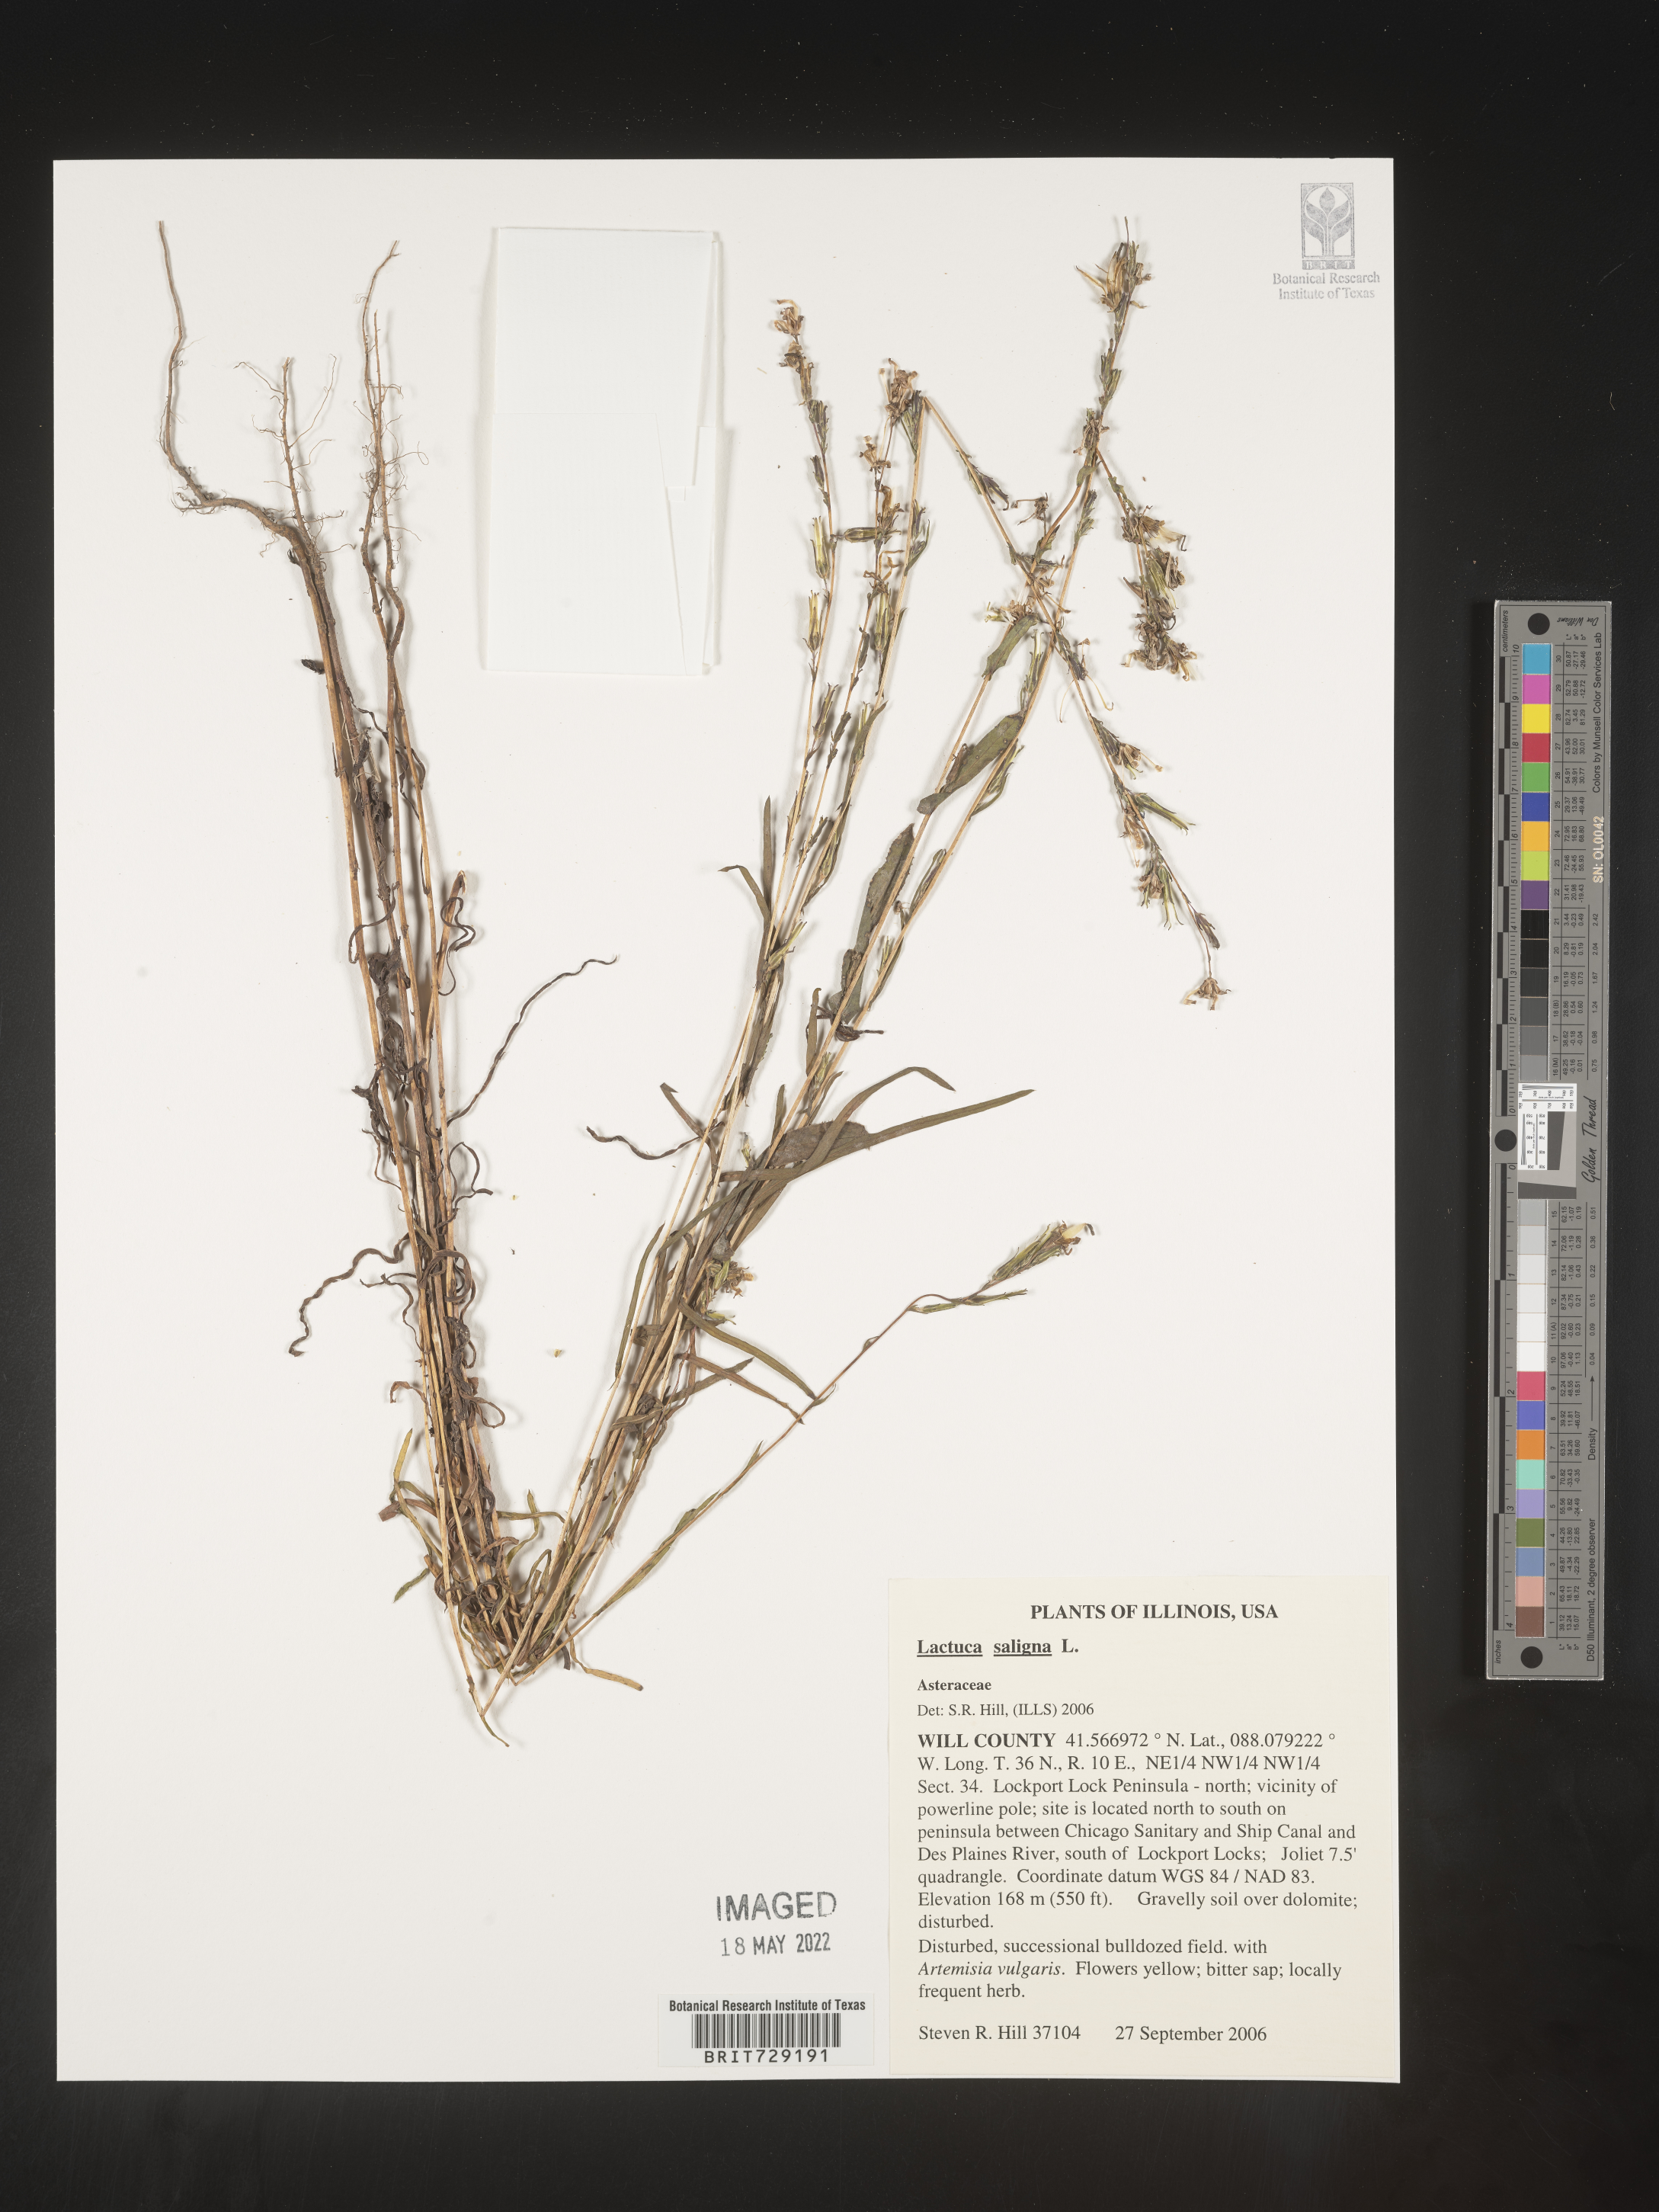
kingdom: Plantae
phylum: Tracheophyta
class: Magnoliopsida
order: Asterales
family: Asteraceae
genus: Lactuca
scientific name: Lactuca saligna
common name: Wild lettuce
